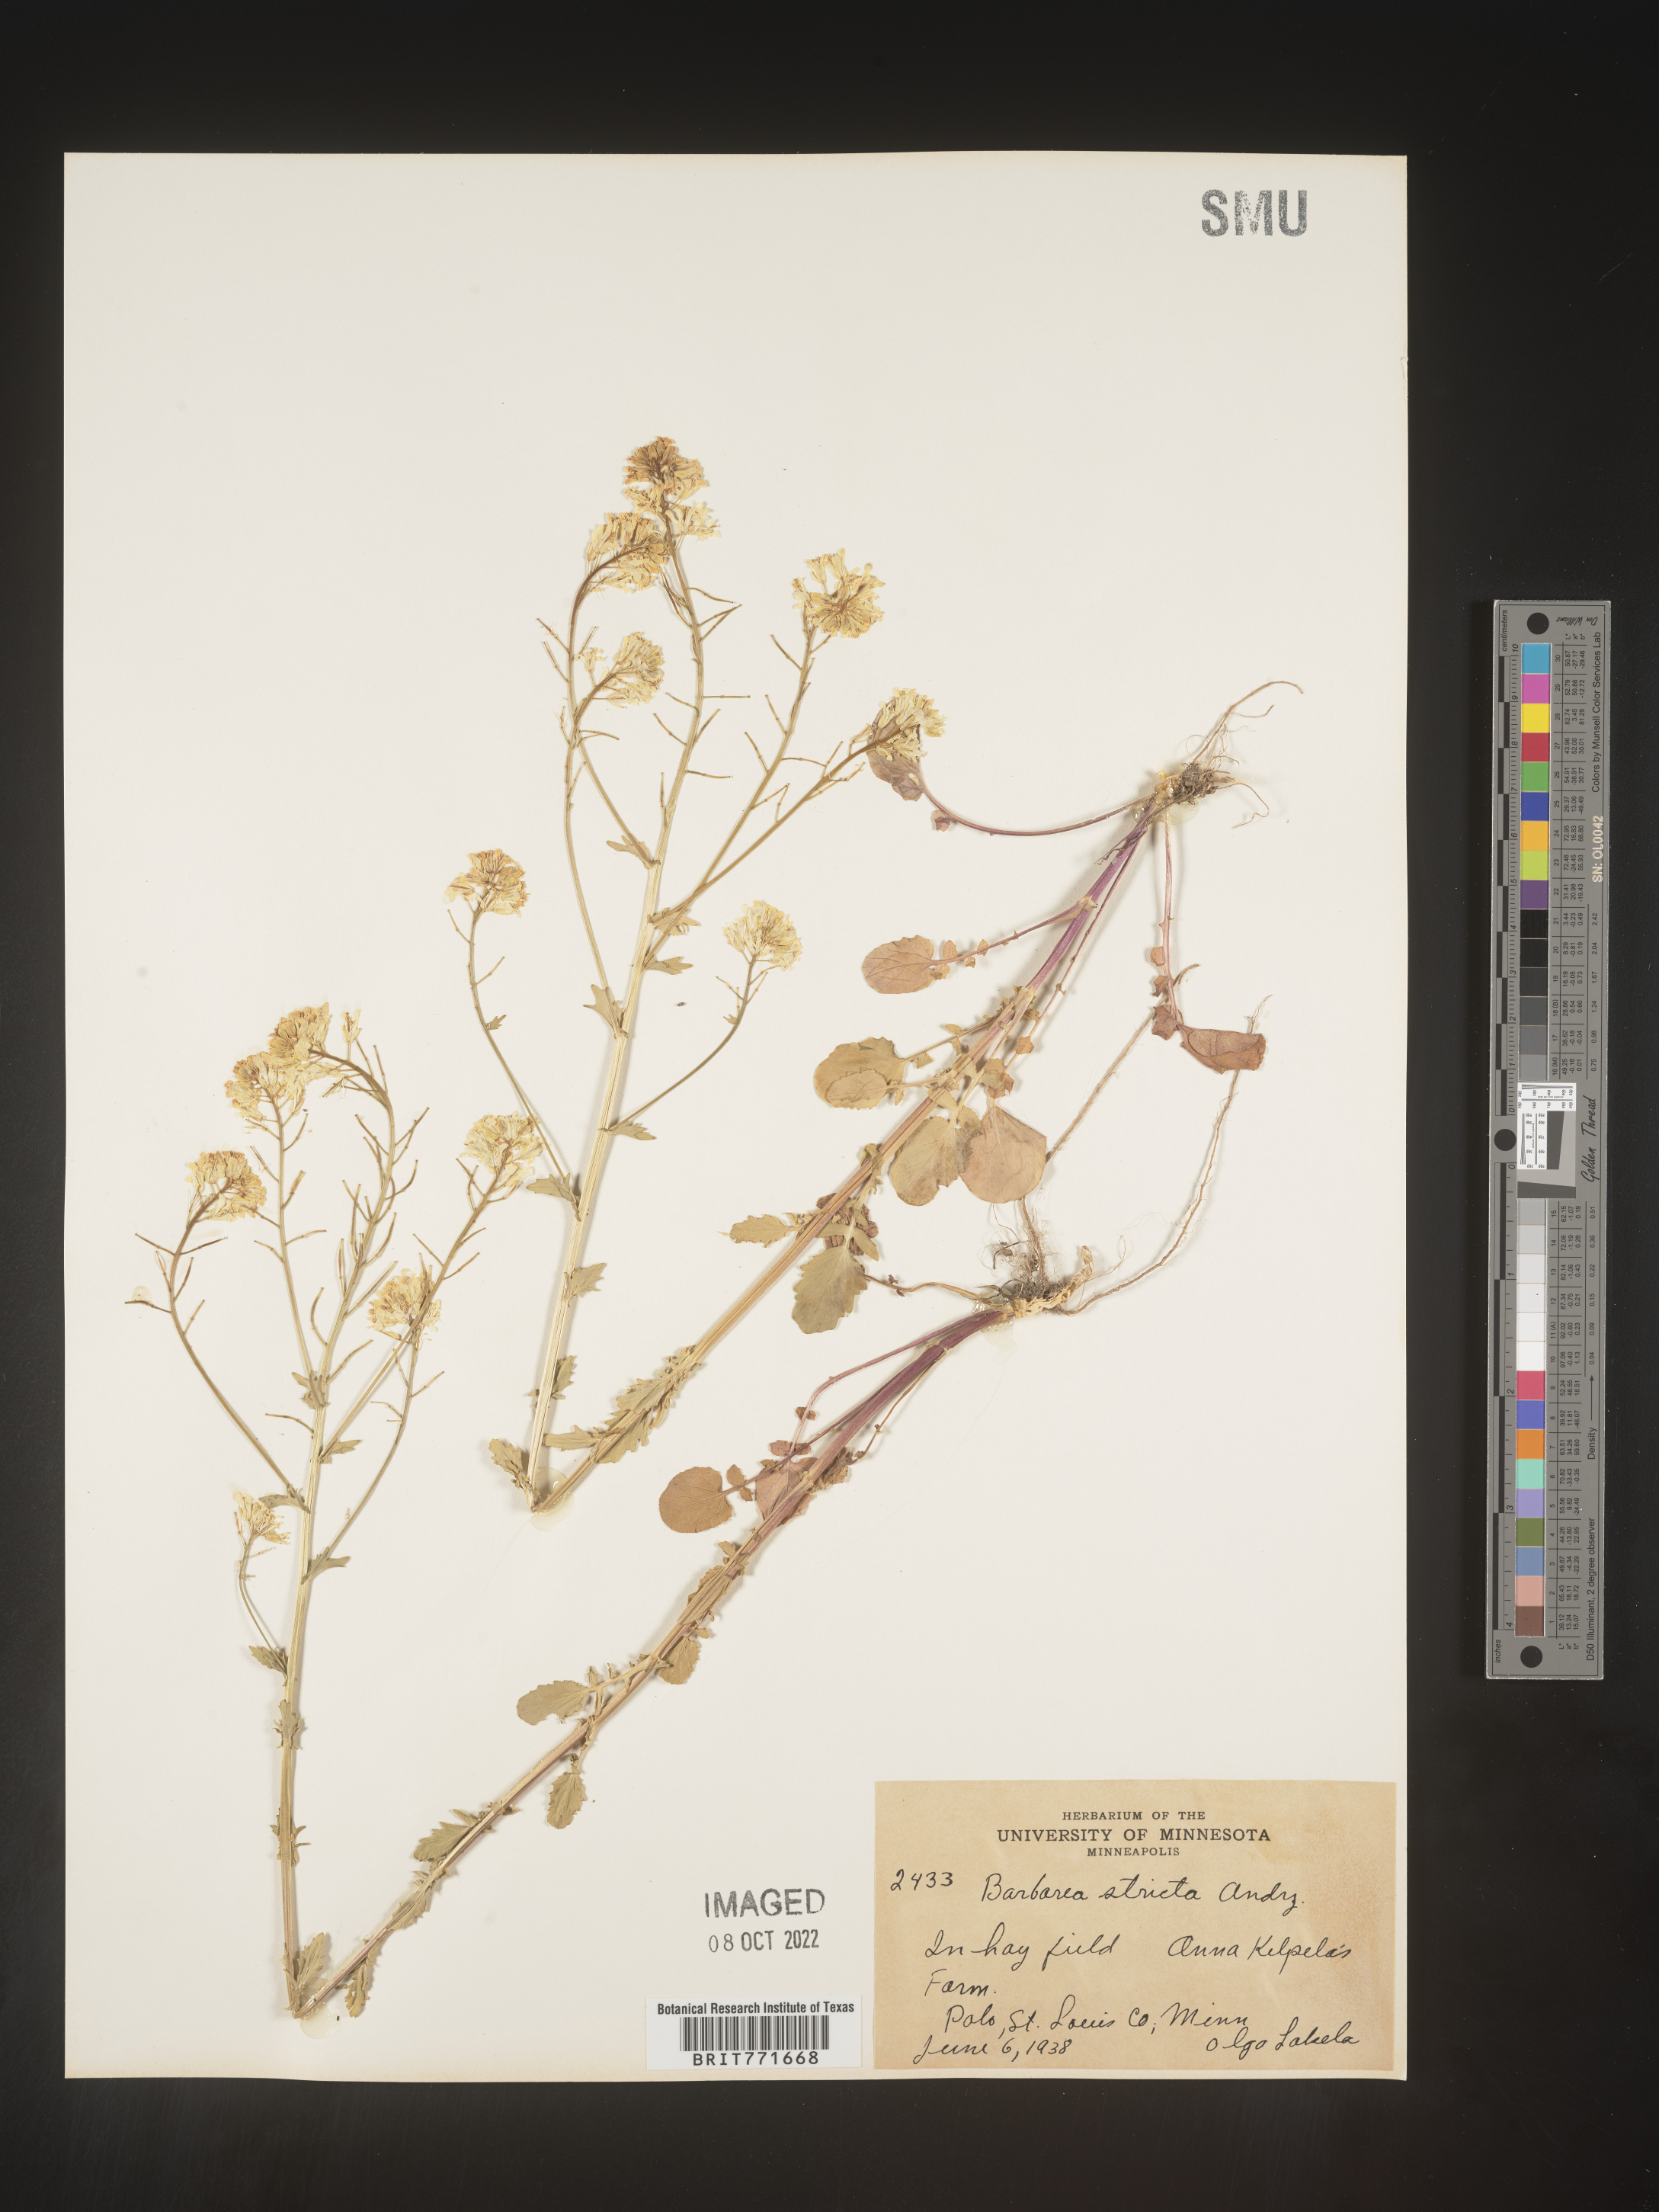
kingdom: Plantae
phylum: Tracheophyta
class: Magnoliopsida
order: Brassicales
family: Brassicaceae
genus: Barbarea
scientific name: Barbarea
